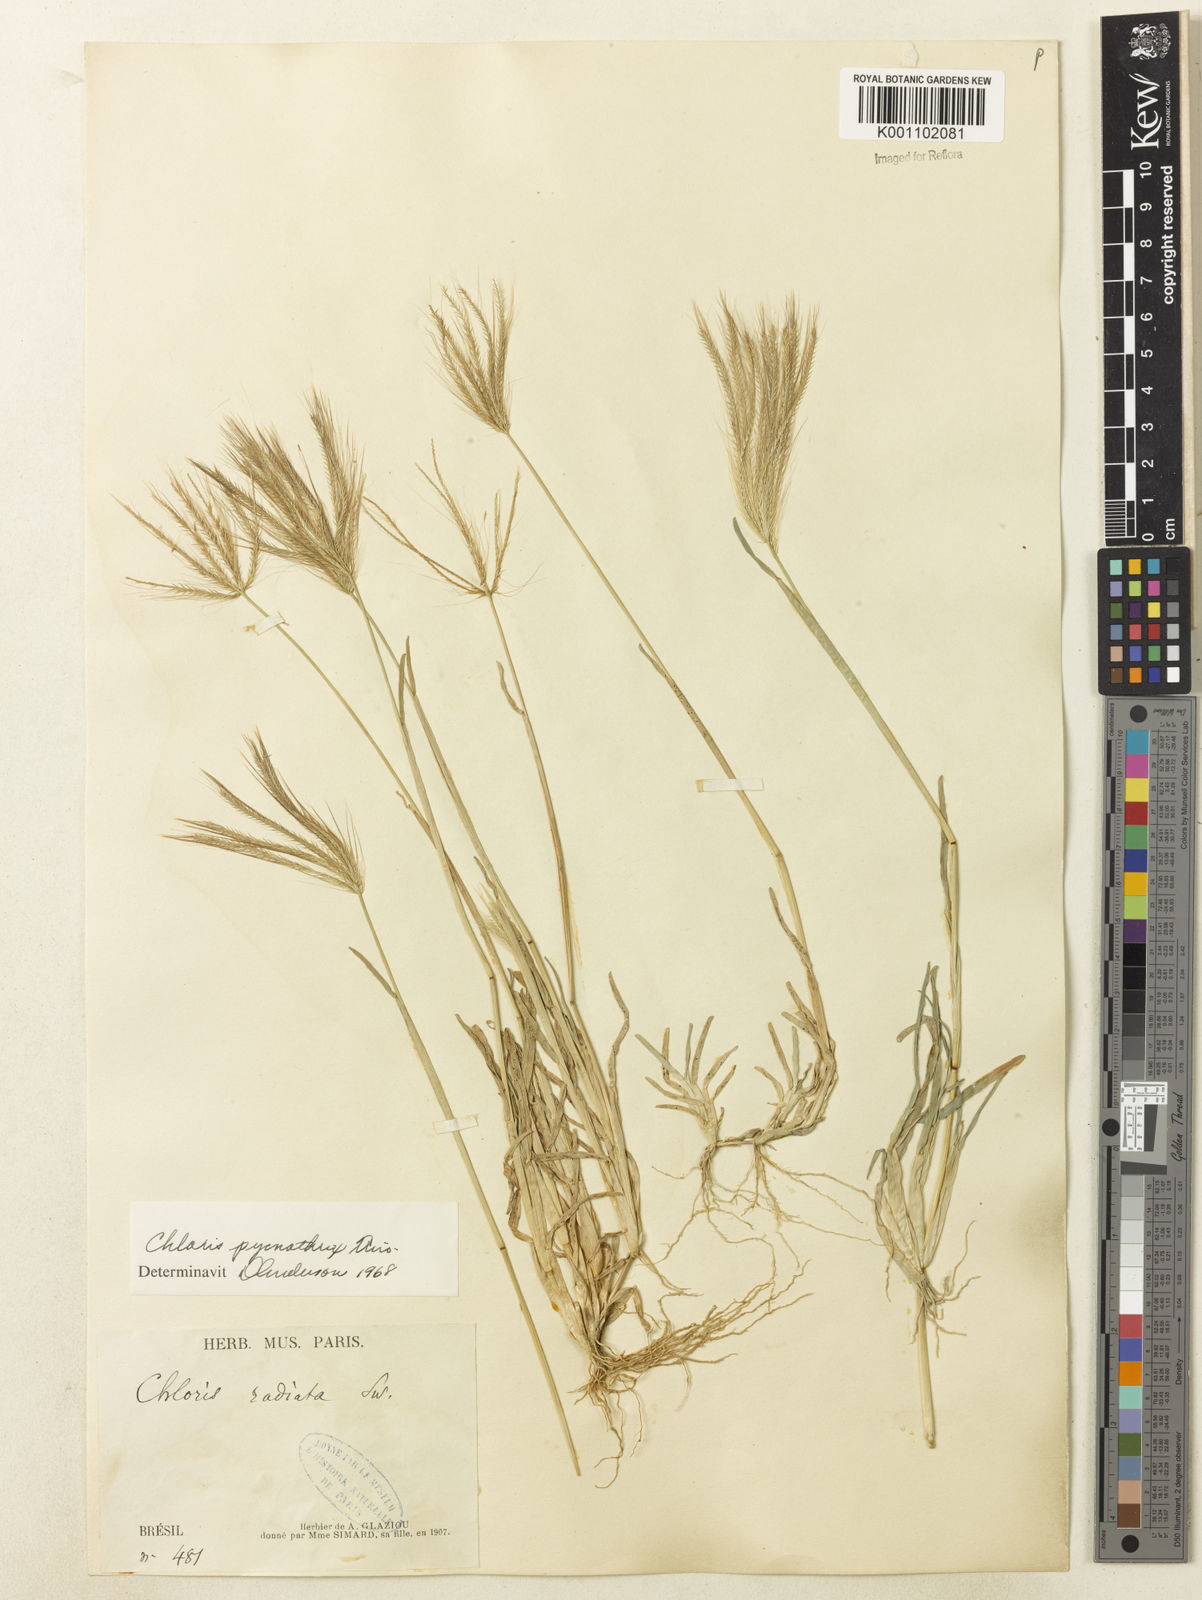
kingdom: Plantae
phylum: Tracheophyta
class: Liliopsida
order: Poales
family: Poaceae
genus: Chloris
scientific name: Chloris pycnothrix
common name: Spiderweb chloris
